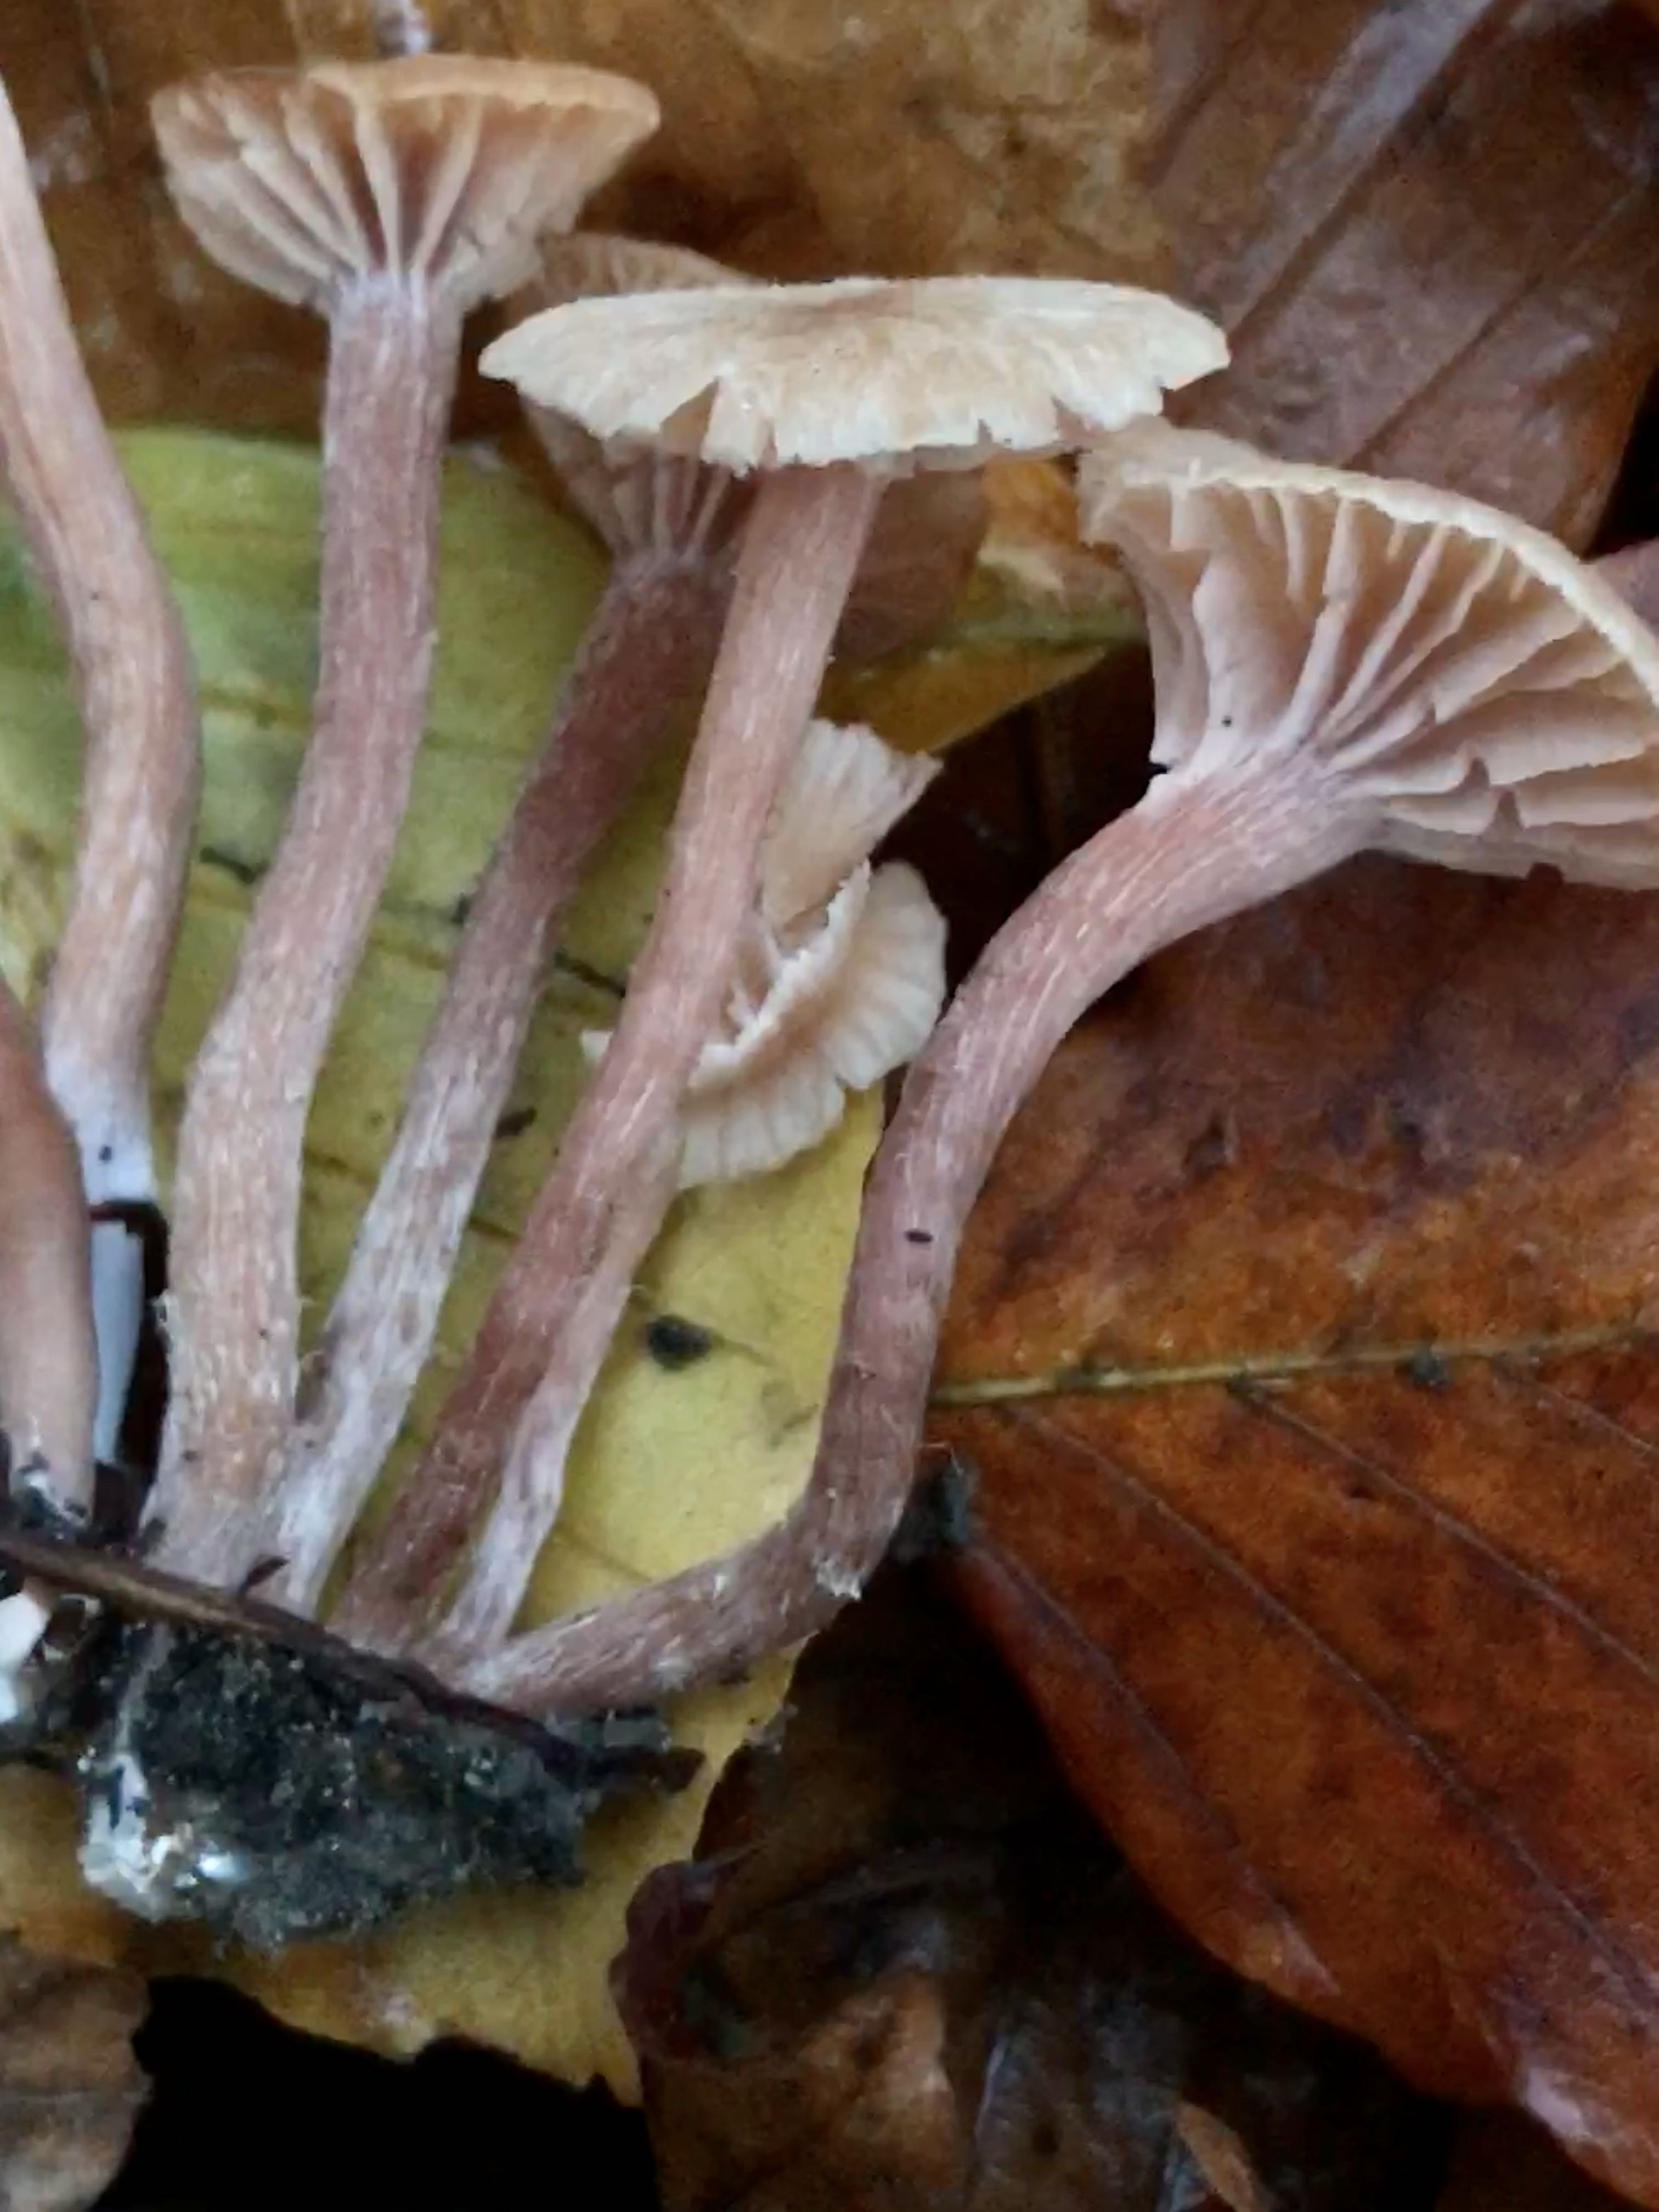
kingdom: Fungi
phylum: Basidiomycota
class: Agaricomycetes
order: Agaricales
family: Hydnangiaceae
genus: Laccaria
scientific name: Laccaria laccata
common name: rød ametysthat
